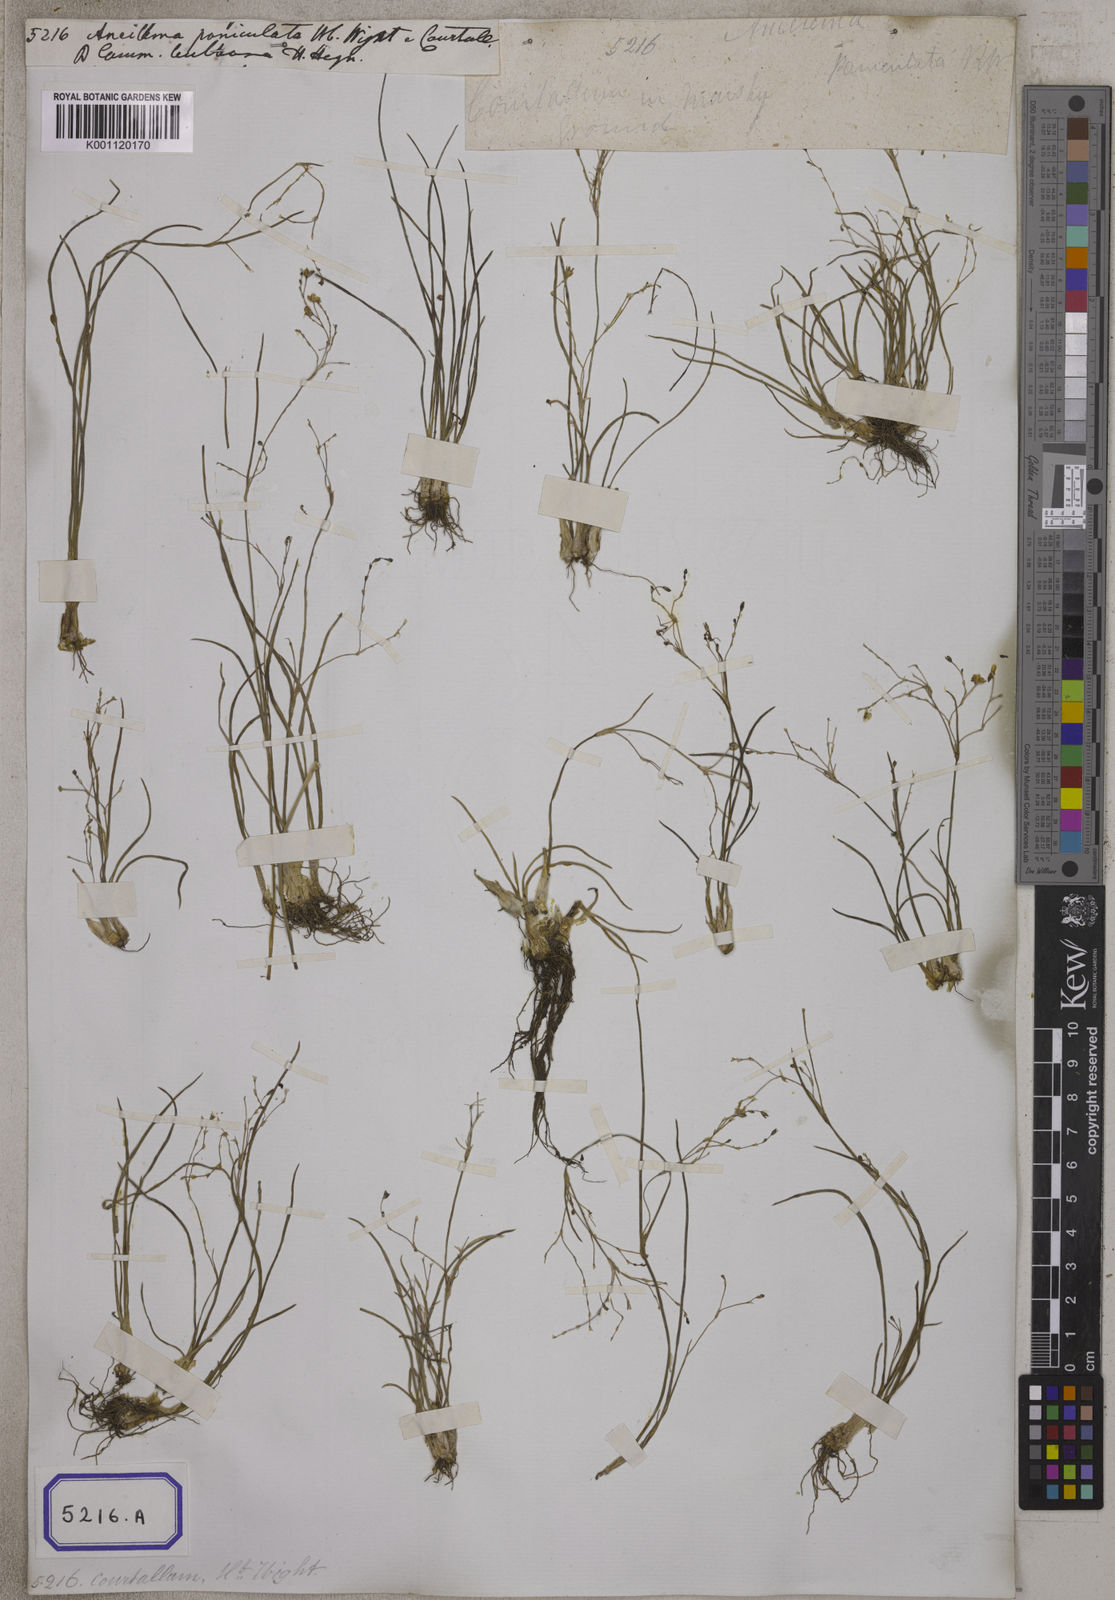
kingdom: Plantae
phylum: Tracheophyta
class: Liliopsida
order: Commelinales
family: Commelinaceae
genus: Aneilema
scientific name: Aneilema
